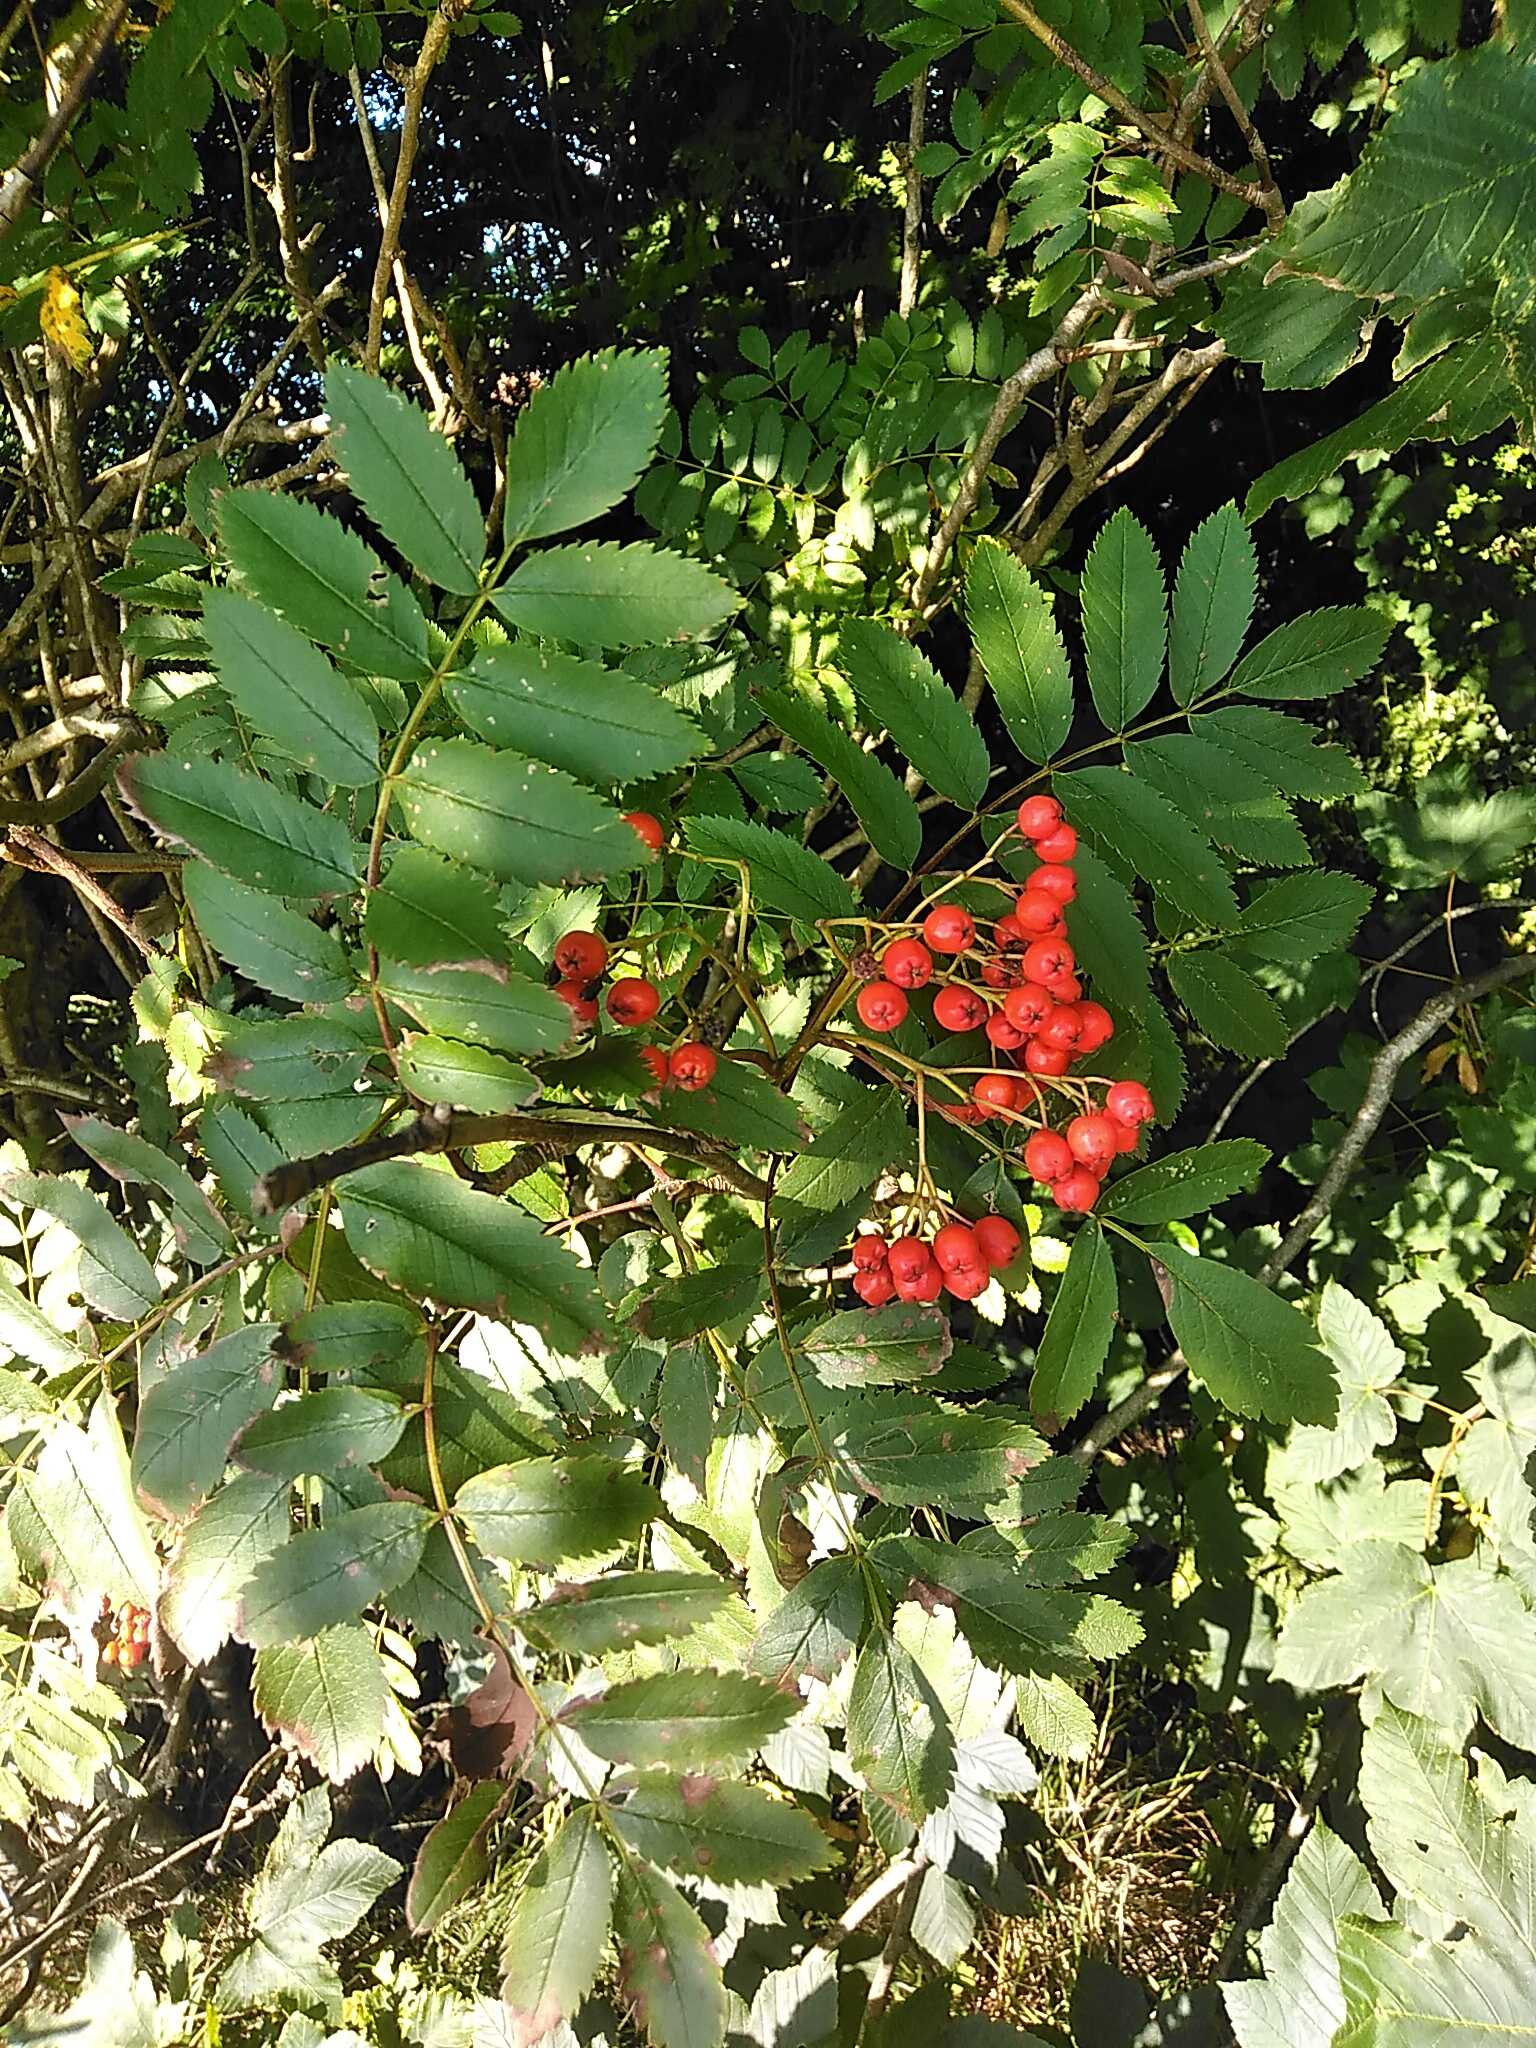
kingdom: Plantae
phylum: Tracheophyta
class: Magnoliopsida
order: Rosales
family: Rosaceae
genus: Sorbus
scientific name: Sorbus aucuparia
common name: Almindelig røn
